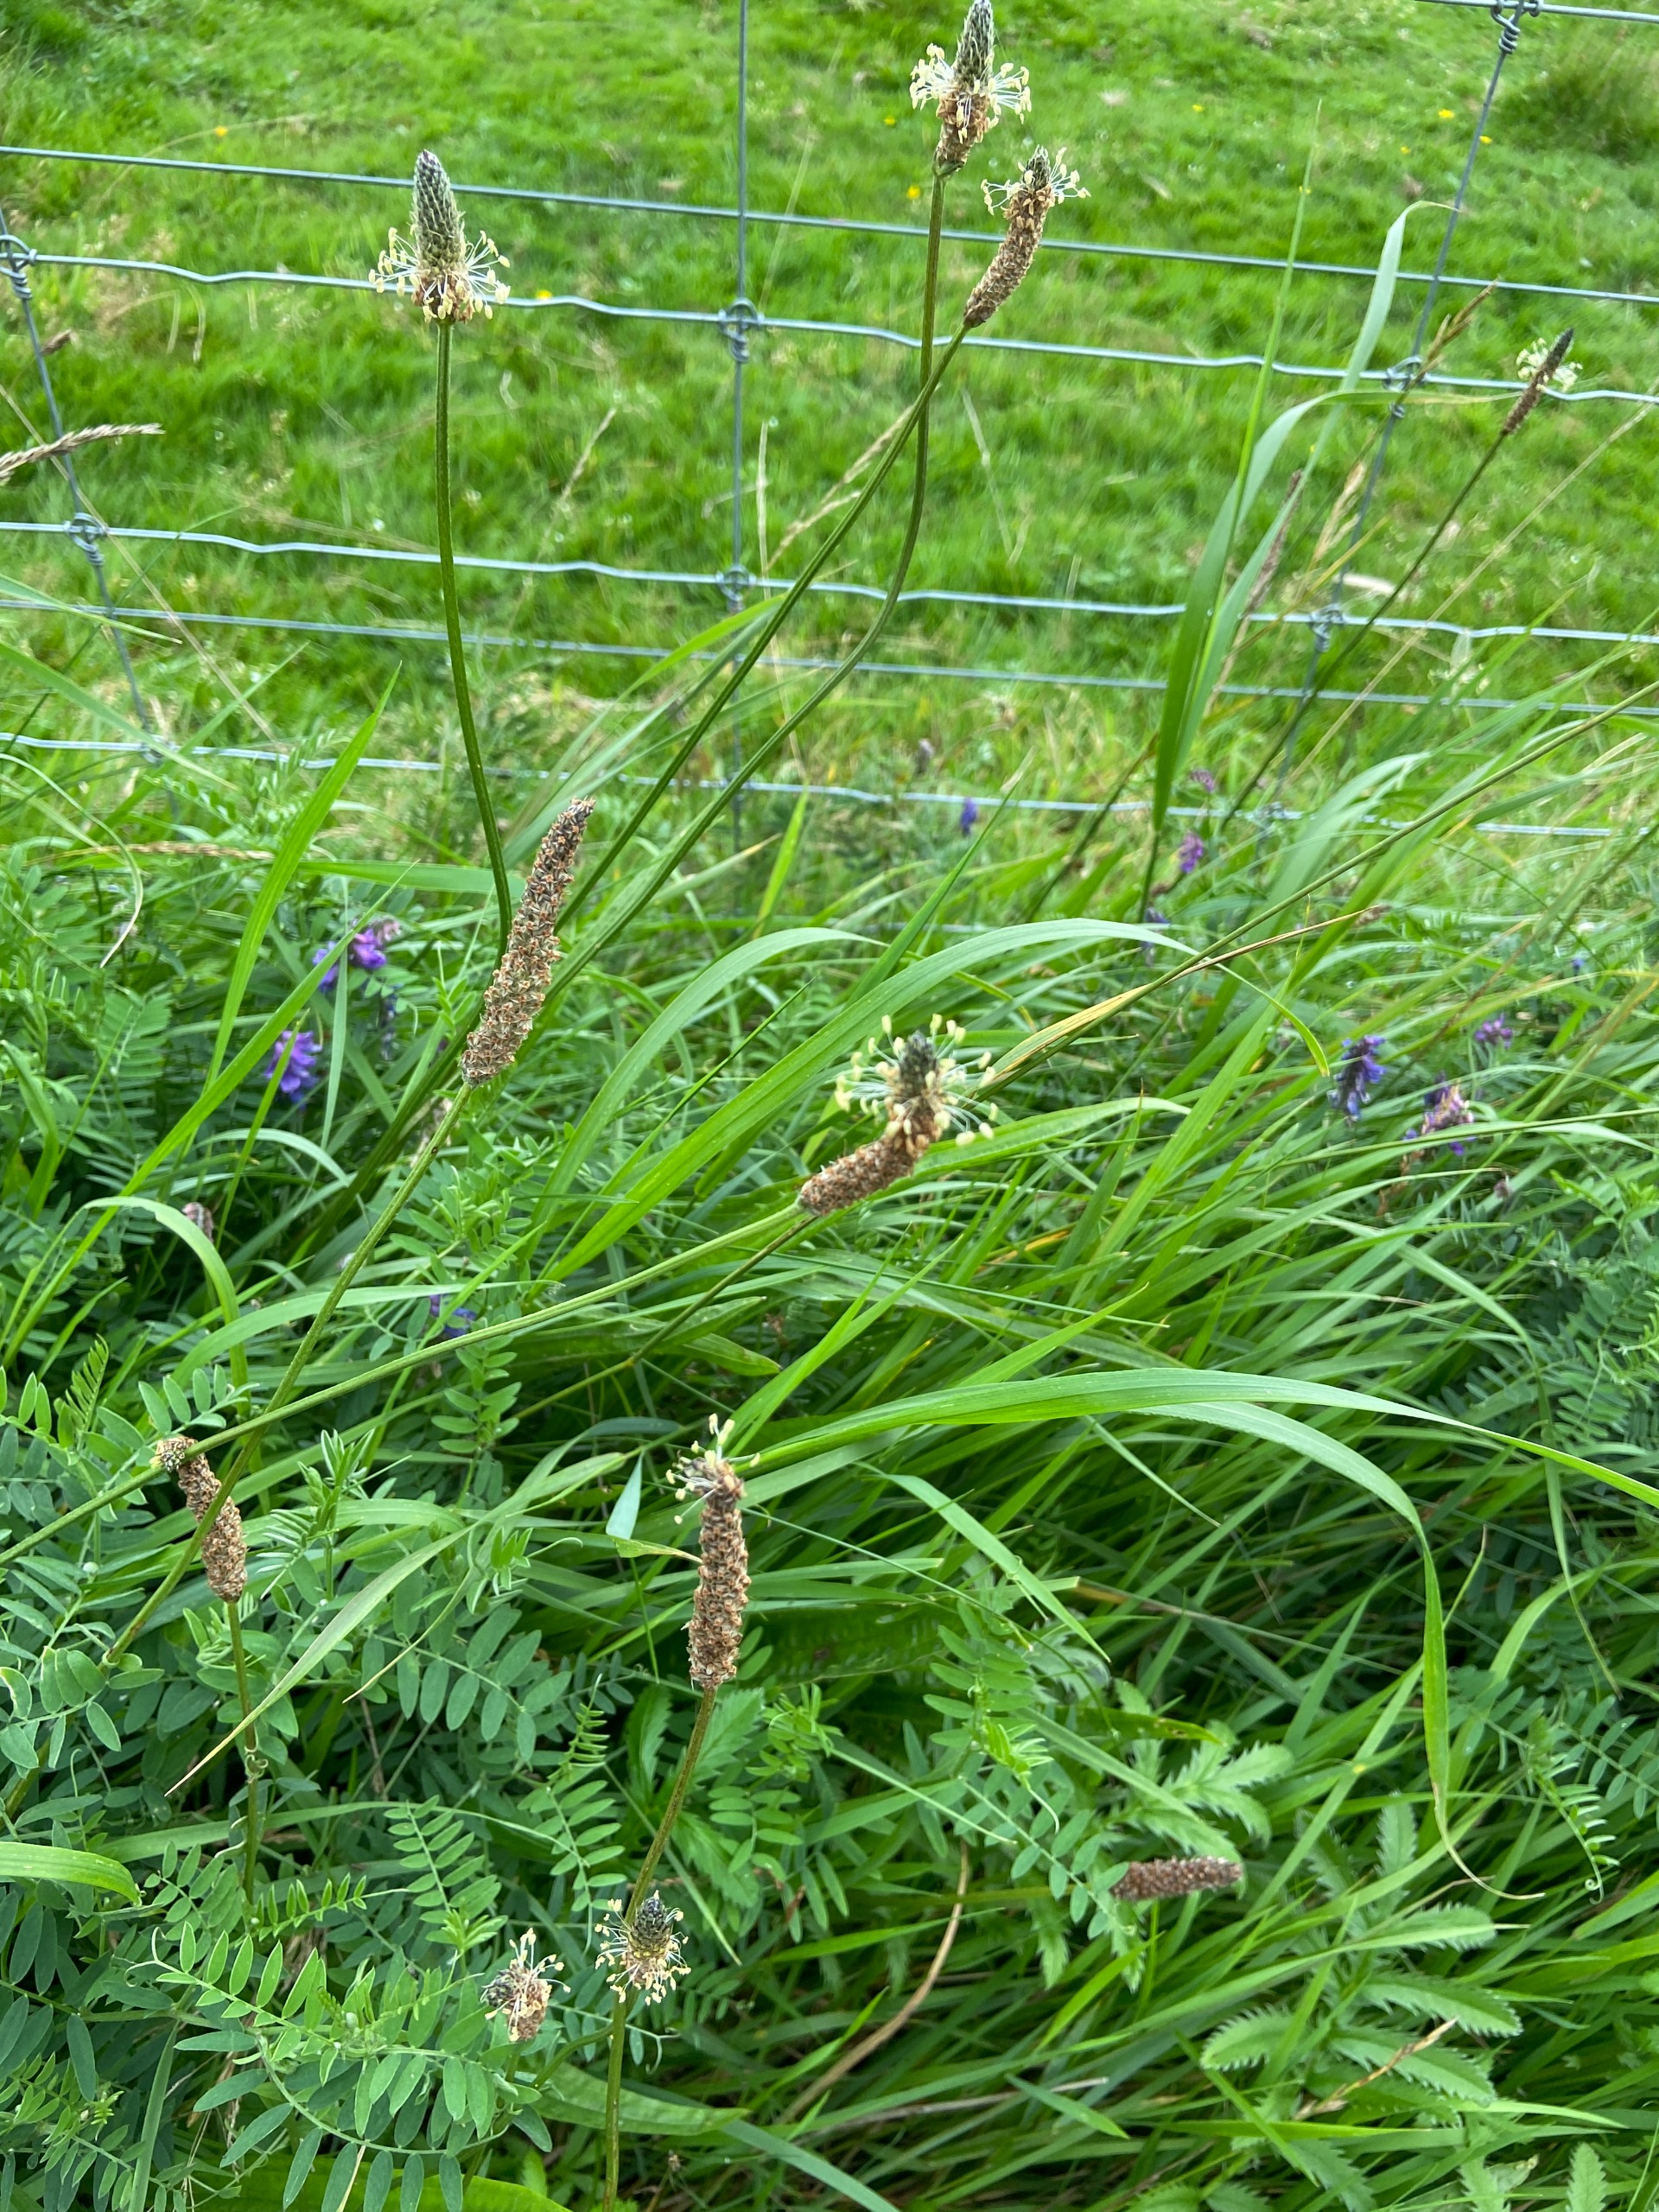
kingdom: Plantae
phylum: Tracheophyta
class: Magnoliopsida
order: Lamiales
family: Plantaginaceae
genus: Plantago
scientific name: Plantago lanceolata
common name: Lancet-vejbred
